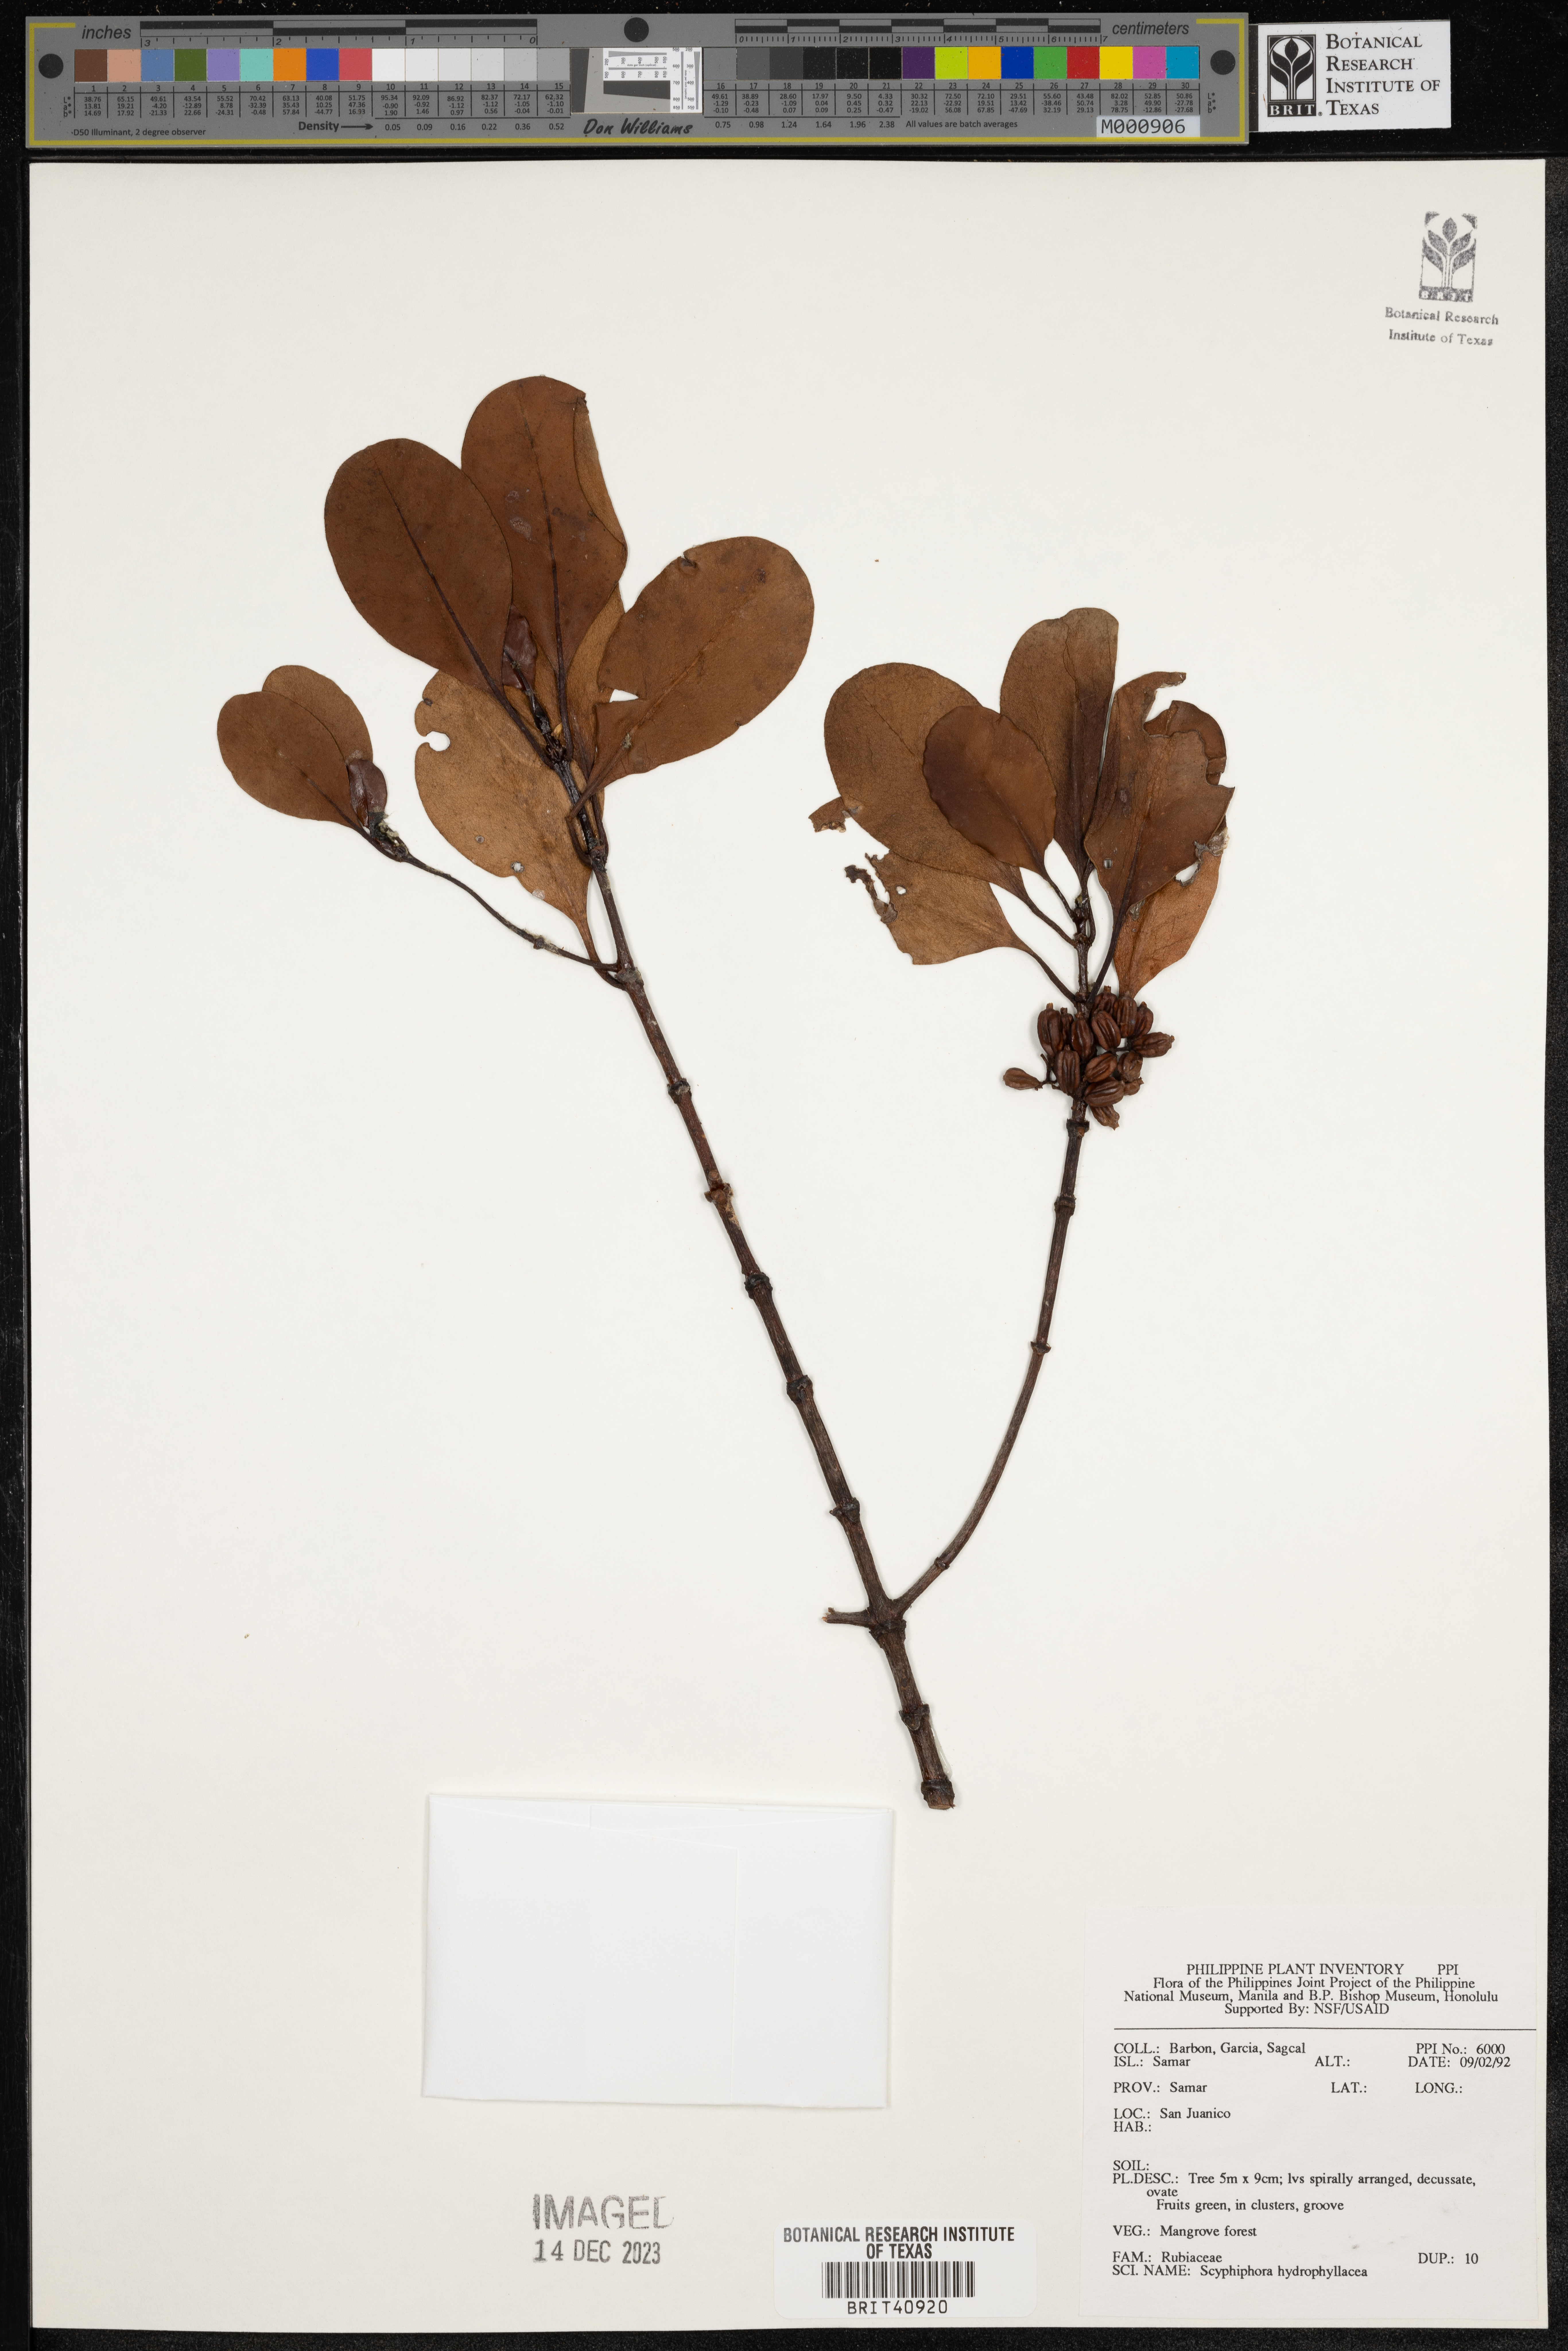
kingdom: Plantae
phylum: Tracheophyta
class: Magnoliopsida
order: Gentianales
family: Rubiaceae
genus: Scyphiphora
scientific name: Scyphiphora hydrophylacea
